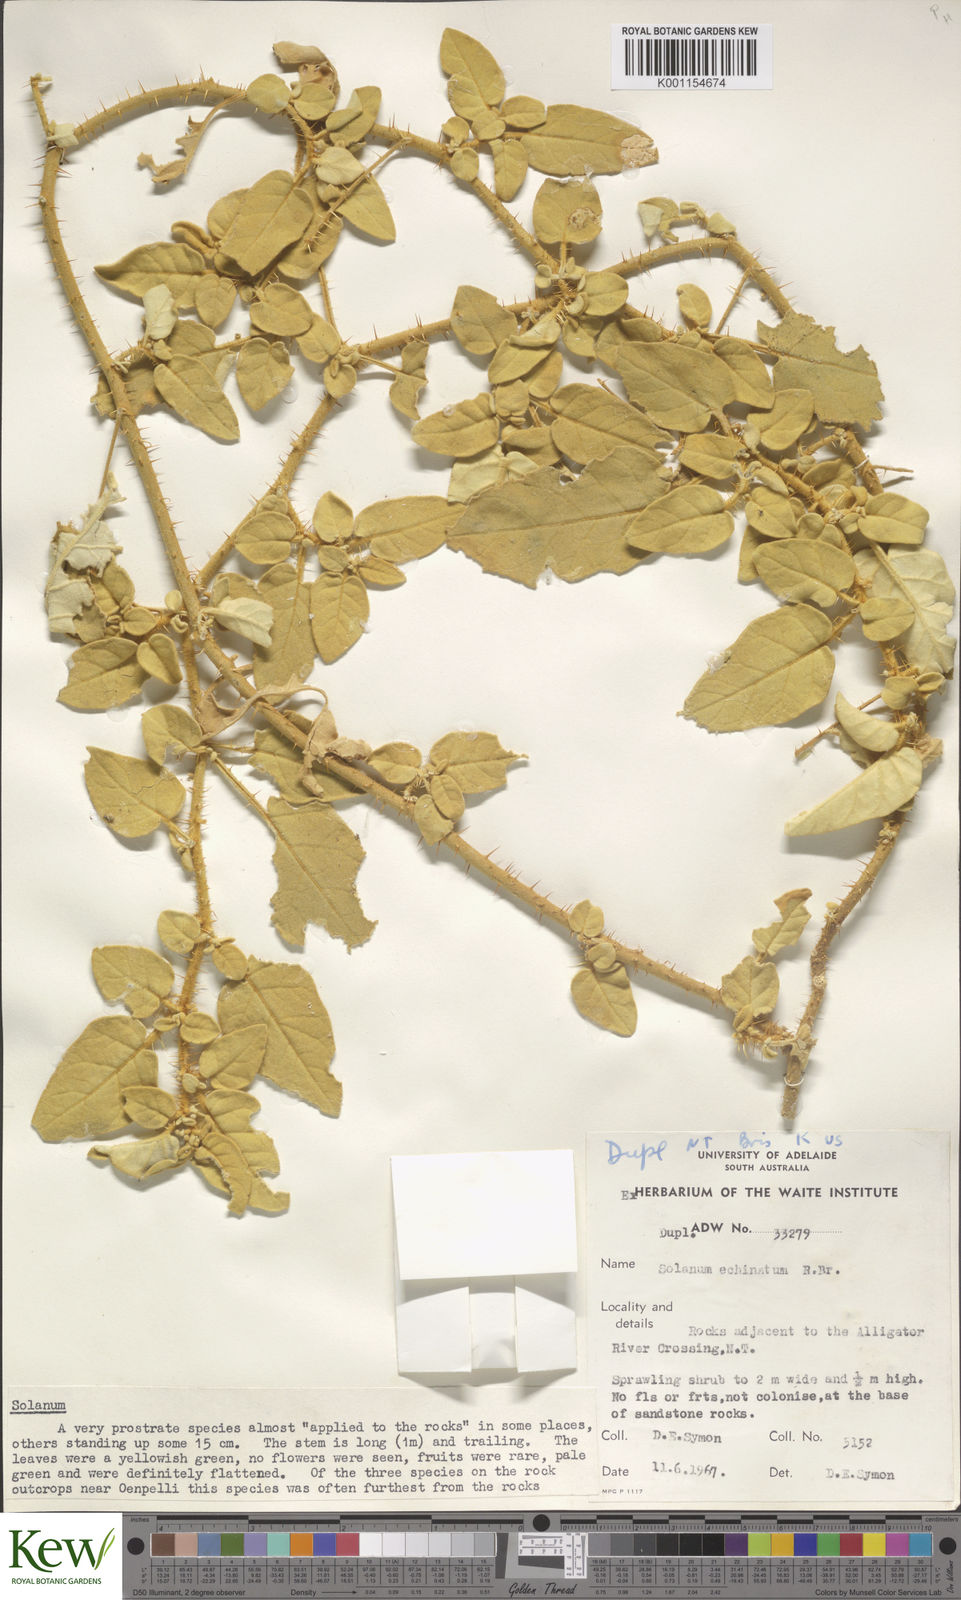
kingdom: Plantae
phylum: Tracheophyta
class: Magnoliopsida
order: Solanales
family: Solanaceae
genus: Solanum
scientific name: Solanum echinatum
